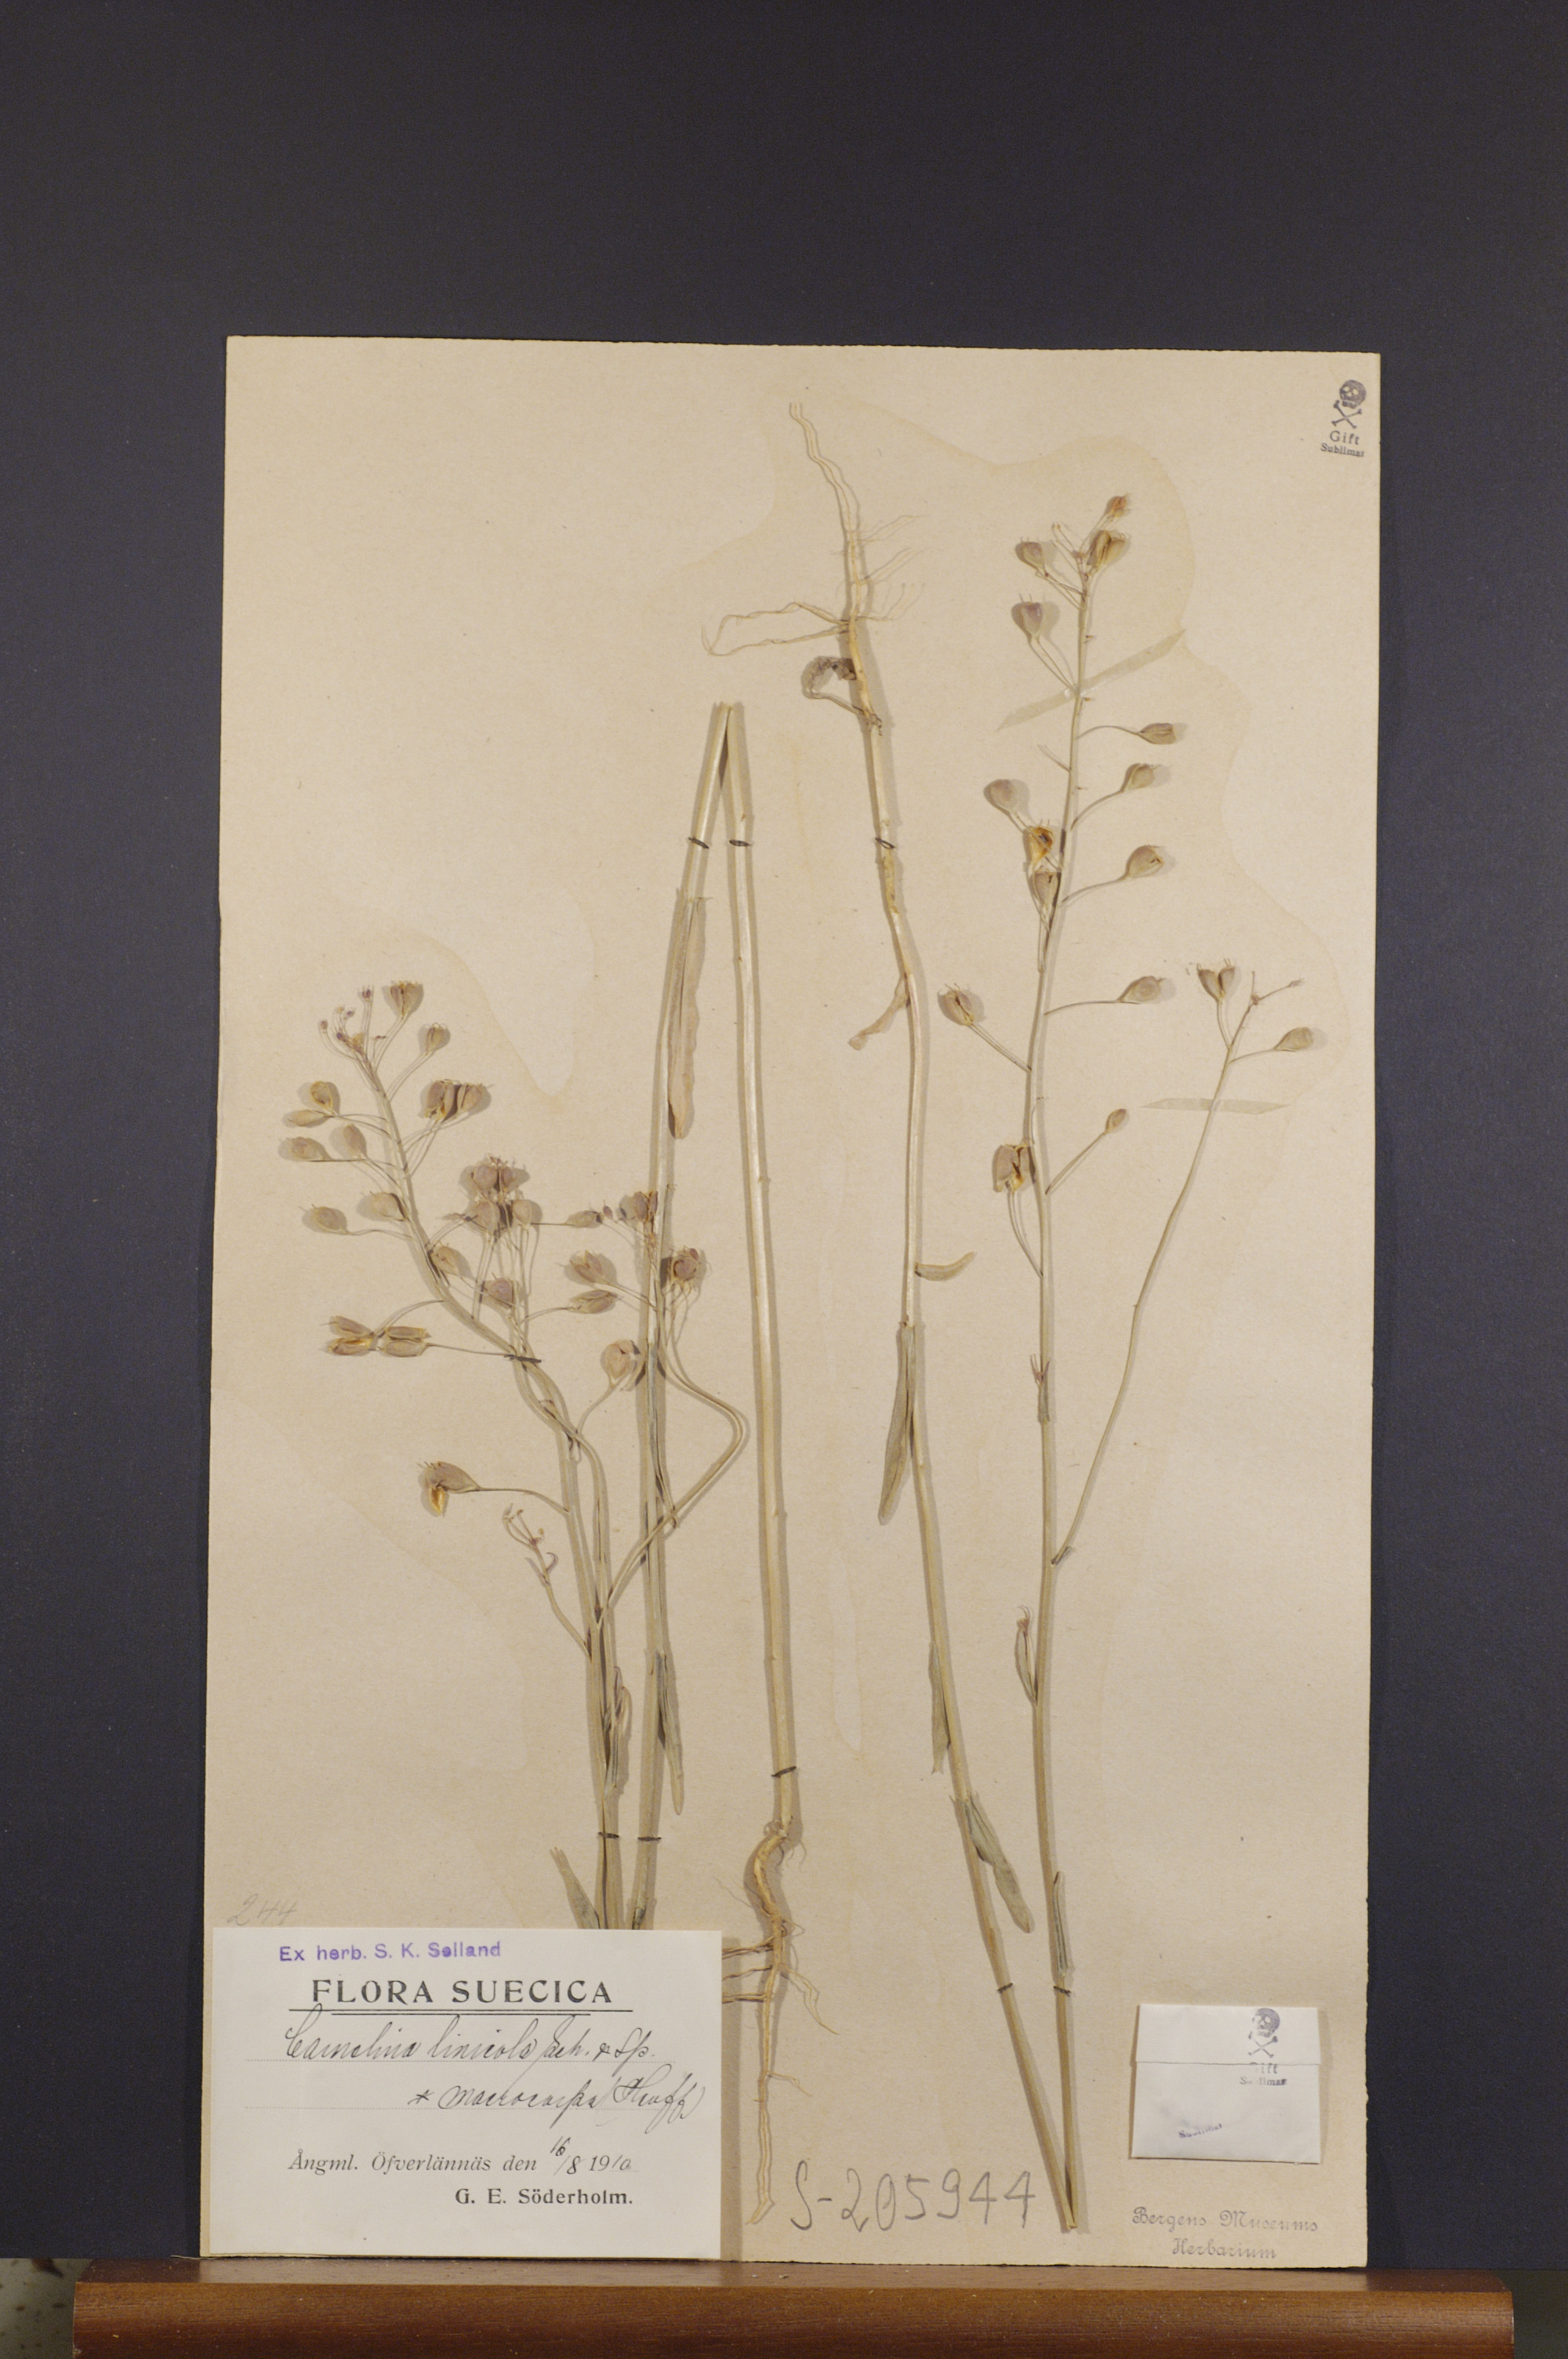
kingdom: Plantae
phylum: Tracheophyta
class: Magnoliopsida
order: Brassicales
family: Brassicaceae
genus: Camelina
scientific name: Camelina alyssum
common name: Gold-of-pleasure
